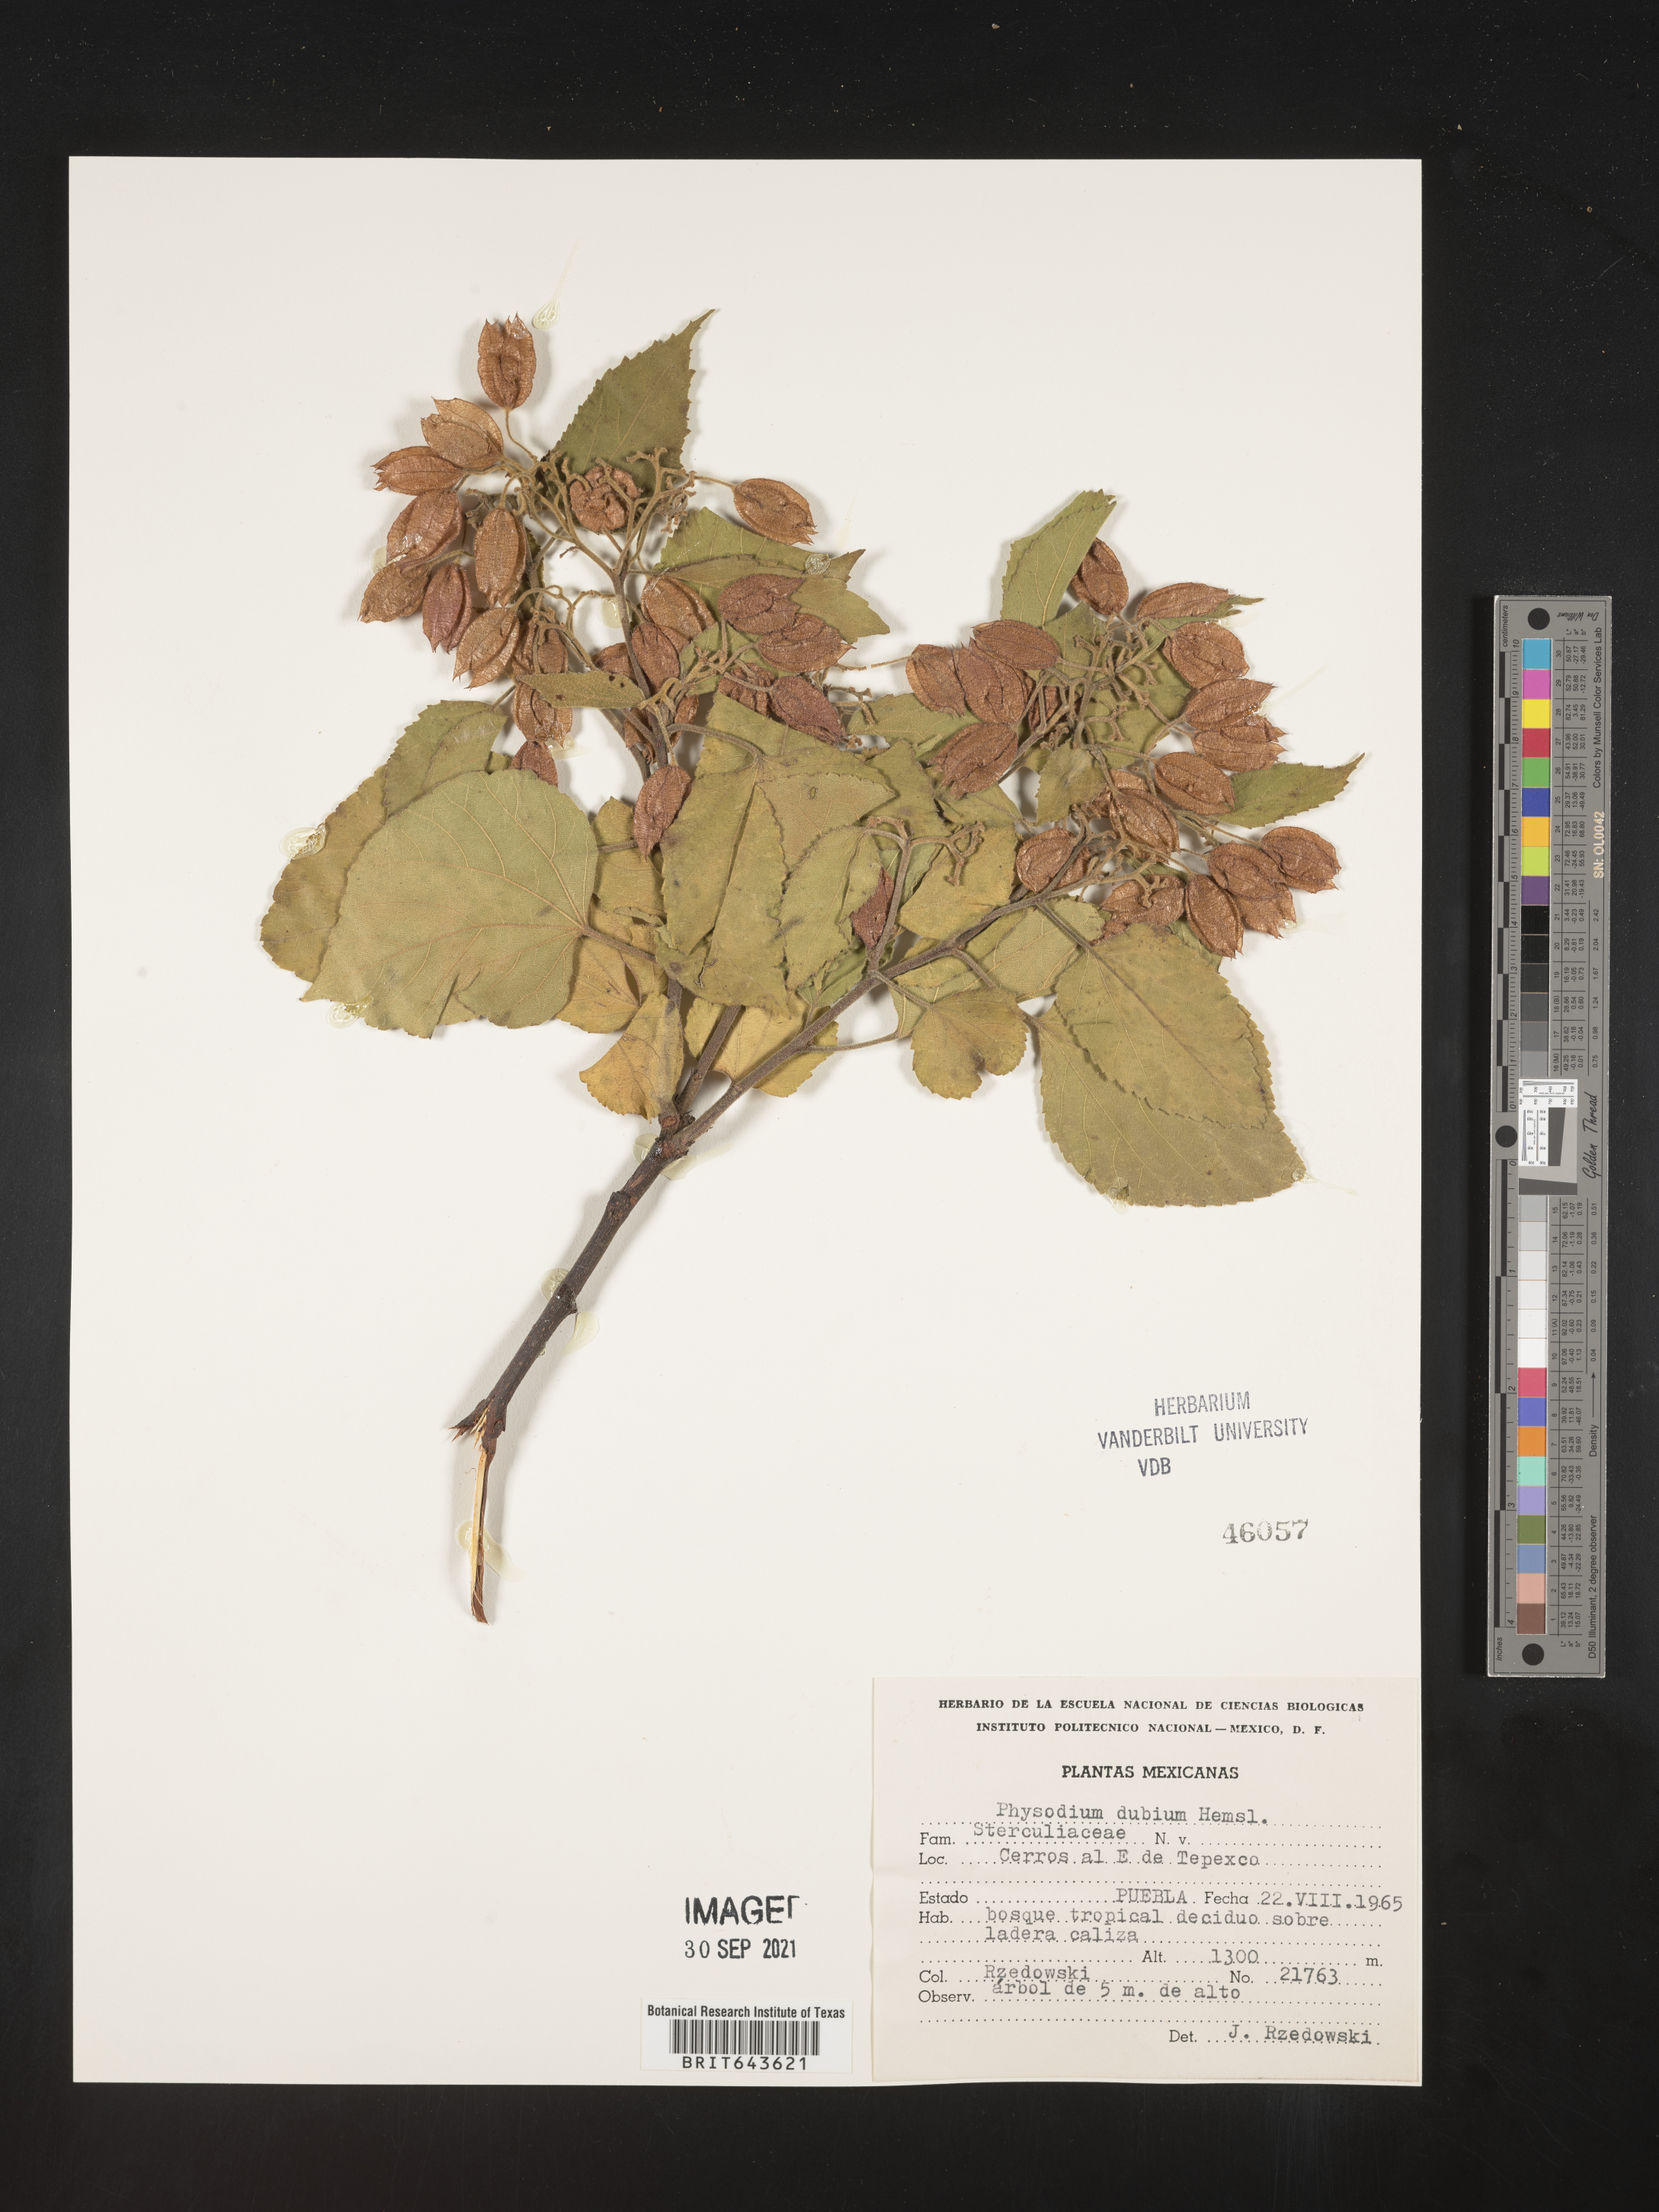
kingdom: Plantae
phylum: Tracheophyta
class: Magnoliopsida
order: Malvales
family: Malvaceae
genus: Physodium
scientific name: Physodium corymbosum
